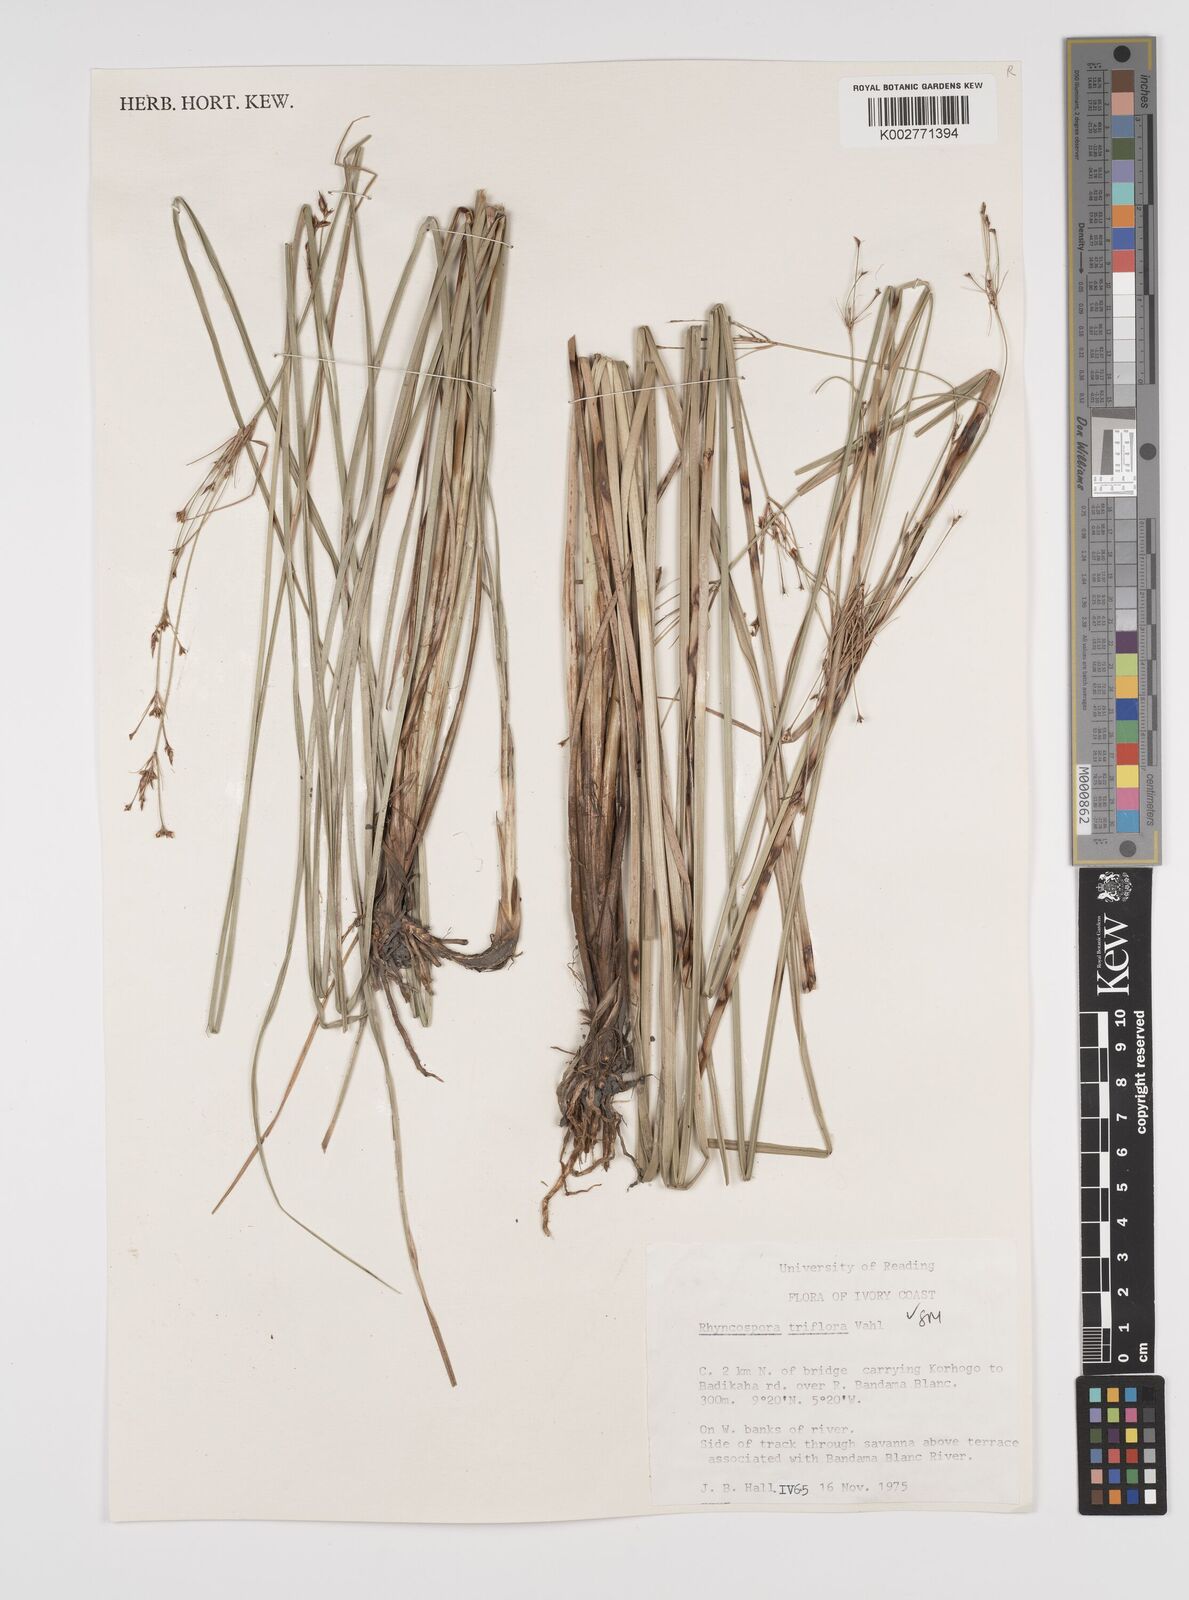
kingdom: Plantae
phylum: Tracheophyta
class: Liliopsida
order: Poales
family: Cyperaceae
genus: Rhynchospora
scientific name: Rhynchospora triflora
